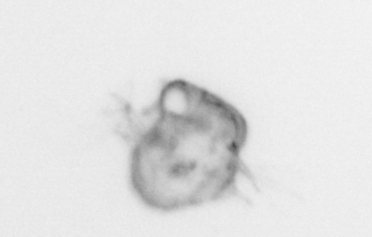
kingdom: Animalia
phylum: Arthropoda
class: Malacostraca
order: Decapoda
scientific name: Decapoda
